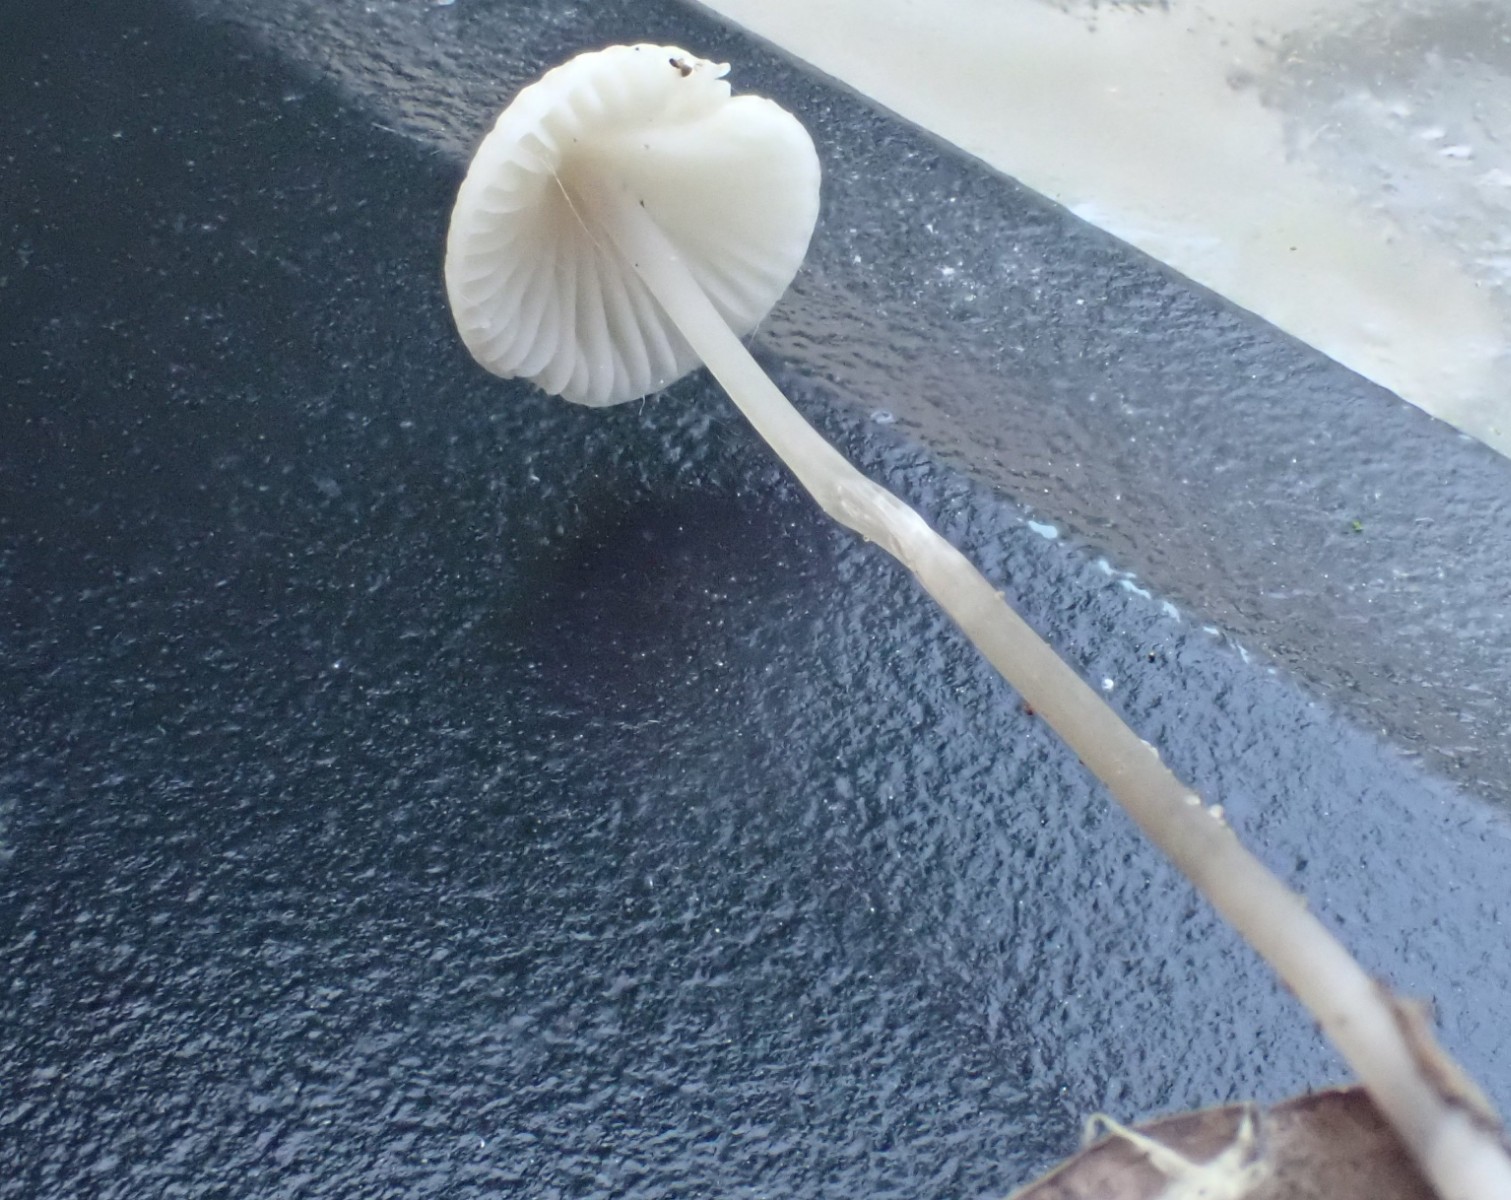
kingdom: Fungi
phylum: Basidiomycota
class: Agaricomycetes
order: Agaricales
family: Mycenaceae
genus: Mycena
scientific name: Mycena
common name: huesvamp
